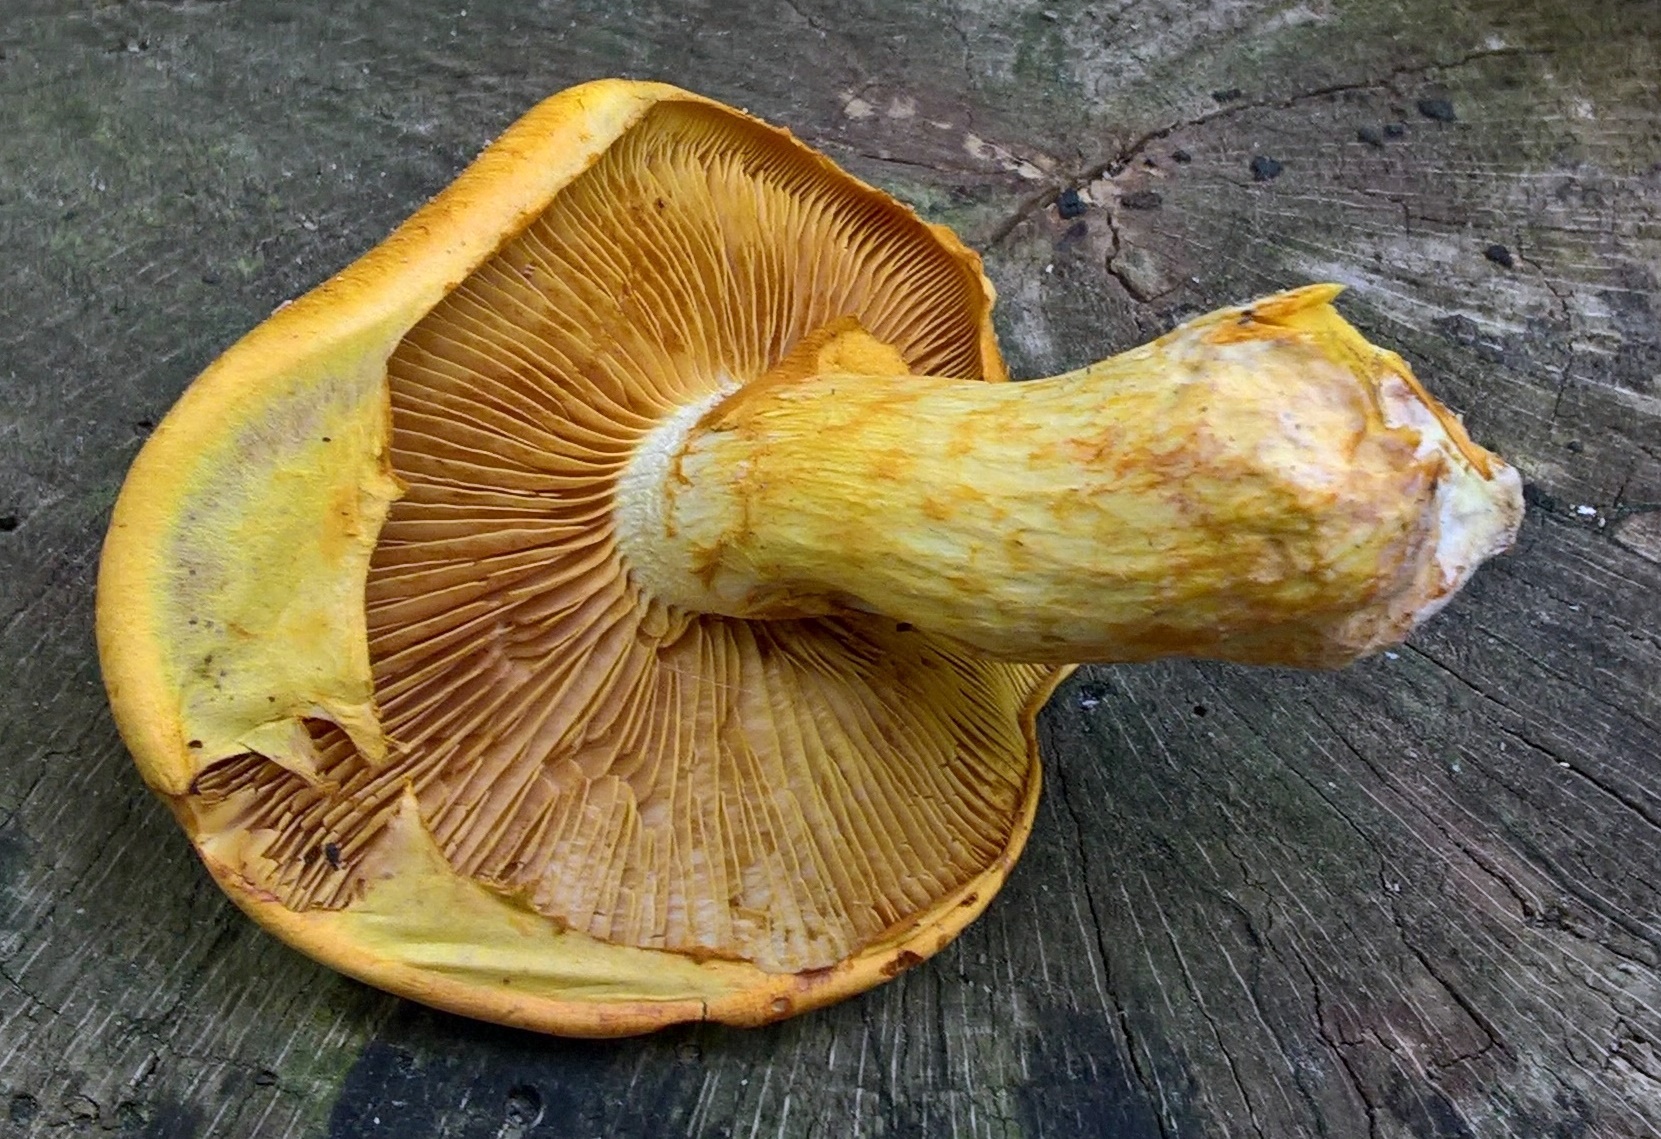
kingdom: Fungi
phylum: Basidiomycota
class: Agaricomycetes
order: Agaricales
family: Hymenogastraceae
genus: Gymnopilus
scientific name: Gymnopilus spectabilis
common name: fibret flammehat
